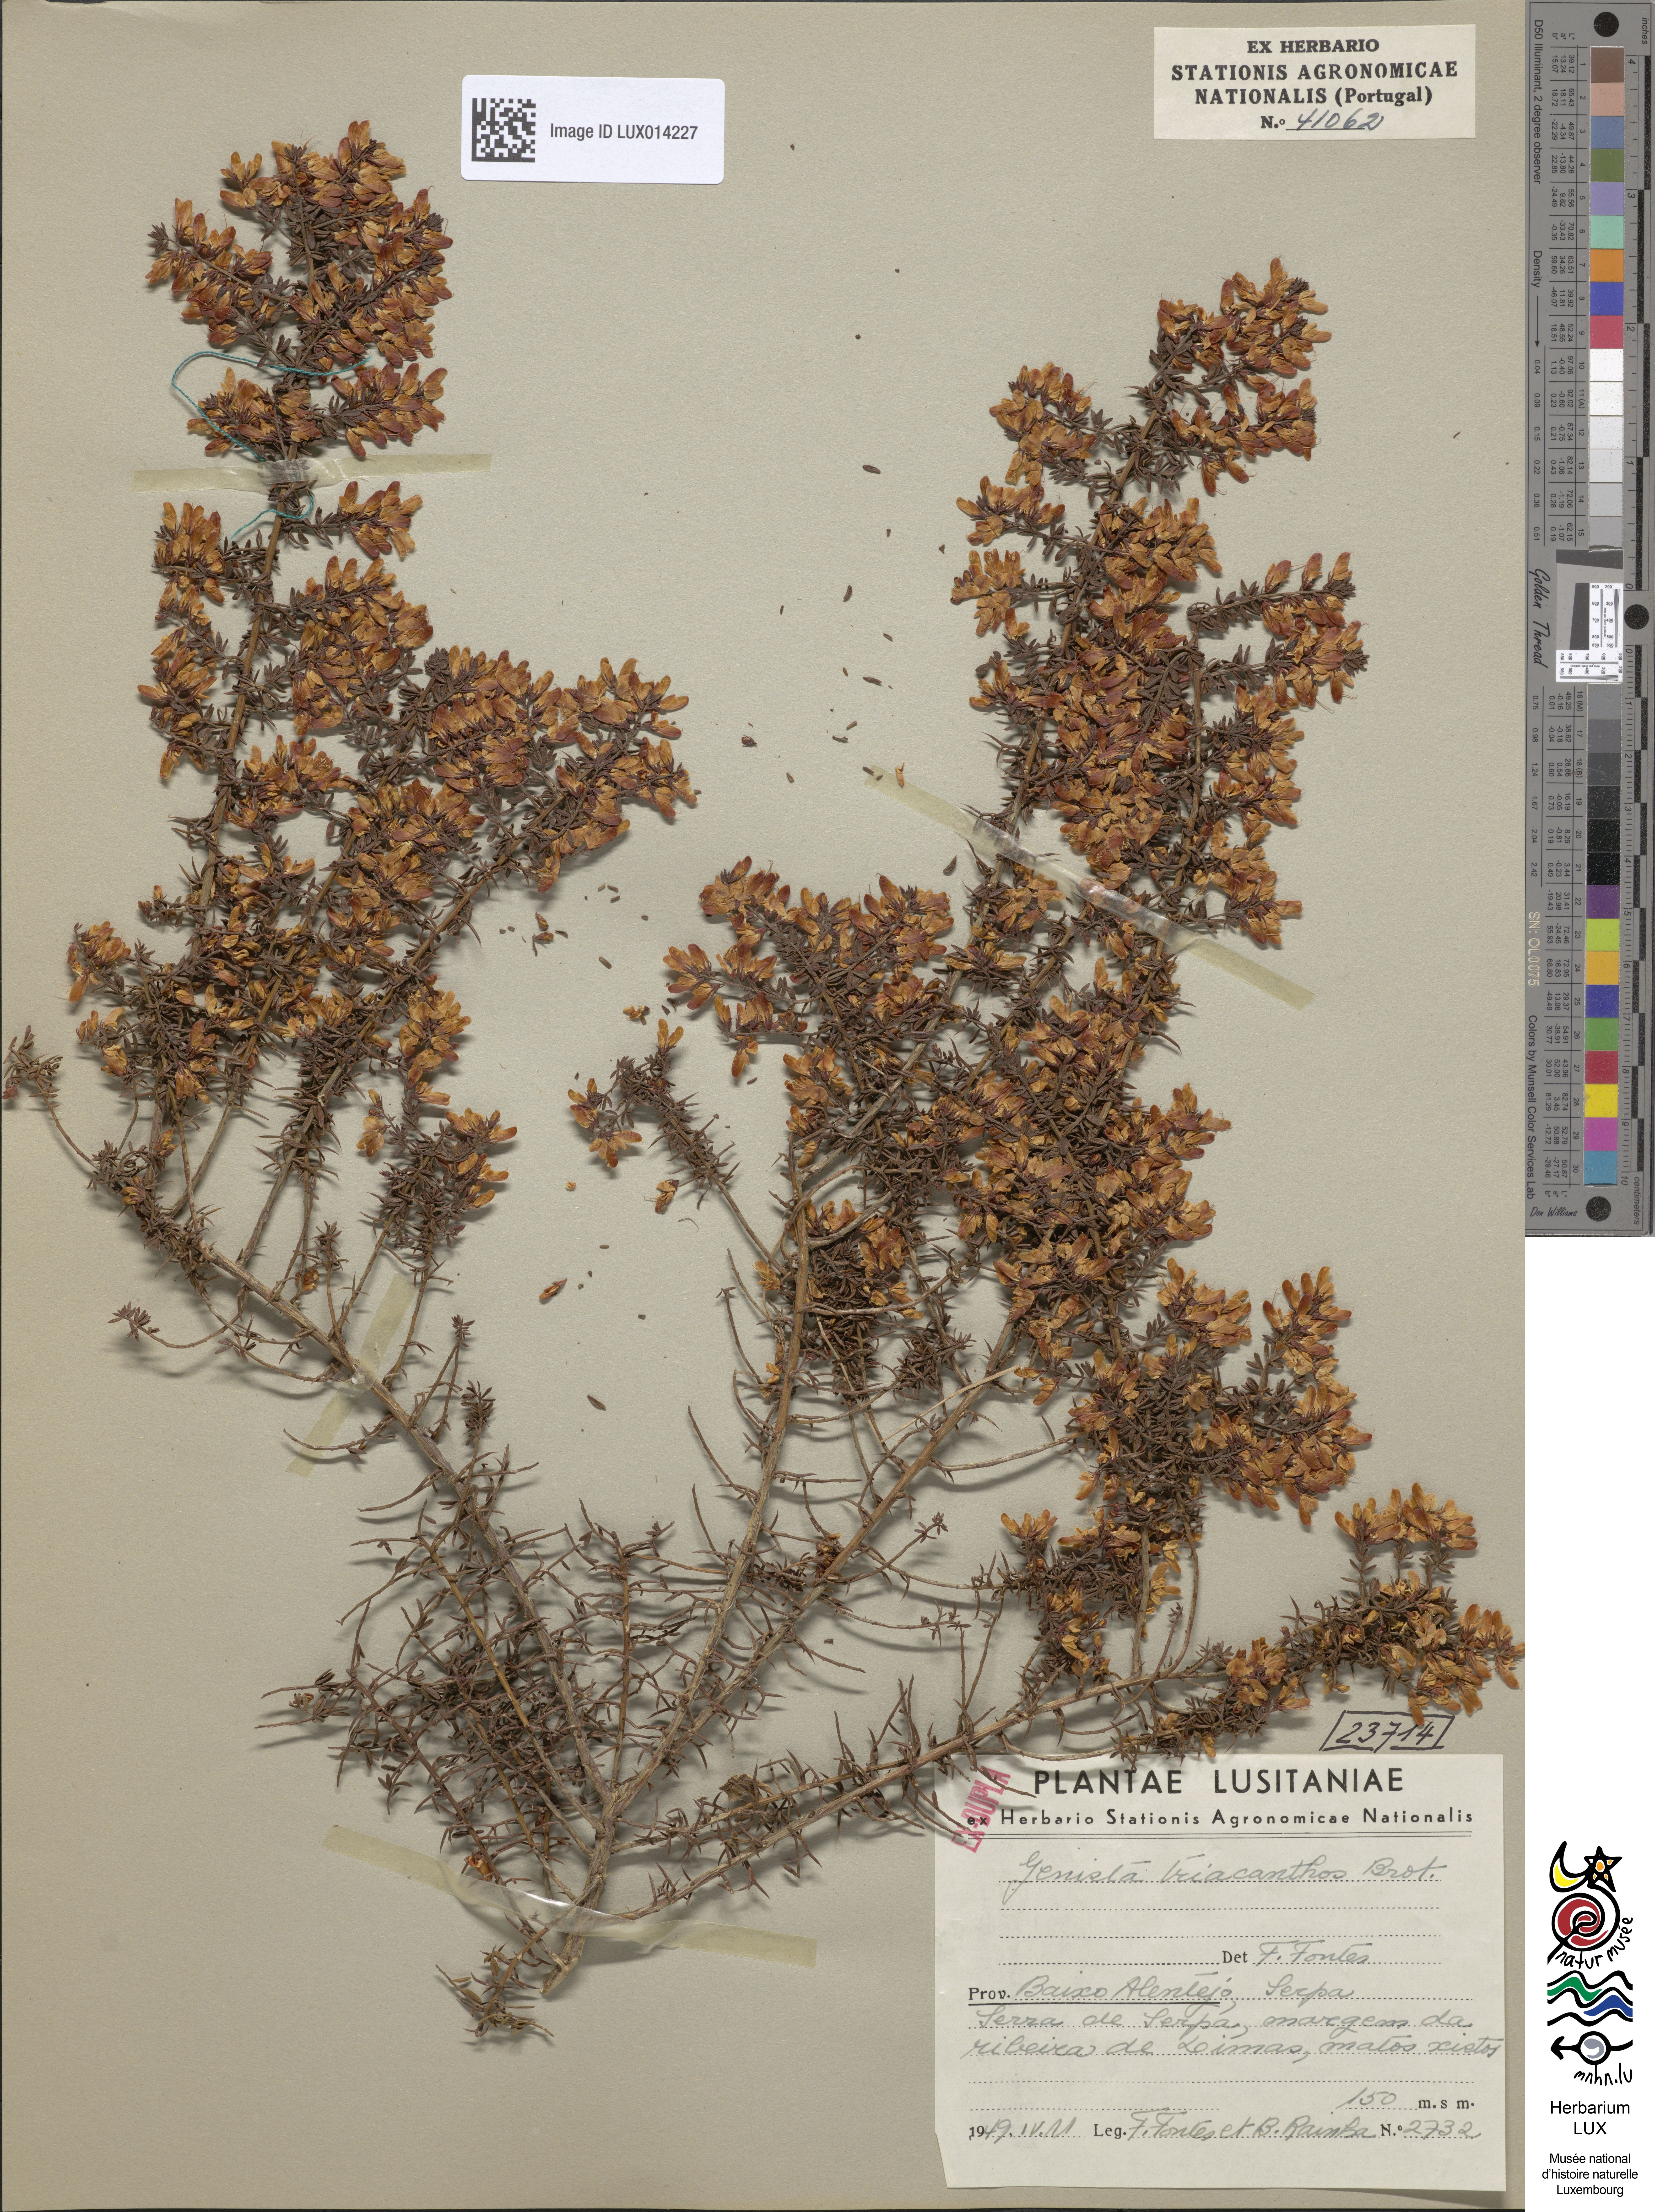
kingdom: Plantae
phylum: Tracheophyta
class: Magnoliopsida
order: Fabales
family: Fabaceae
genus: Genista
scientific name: Genista triacanthos
